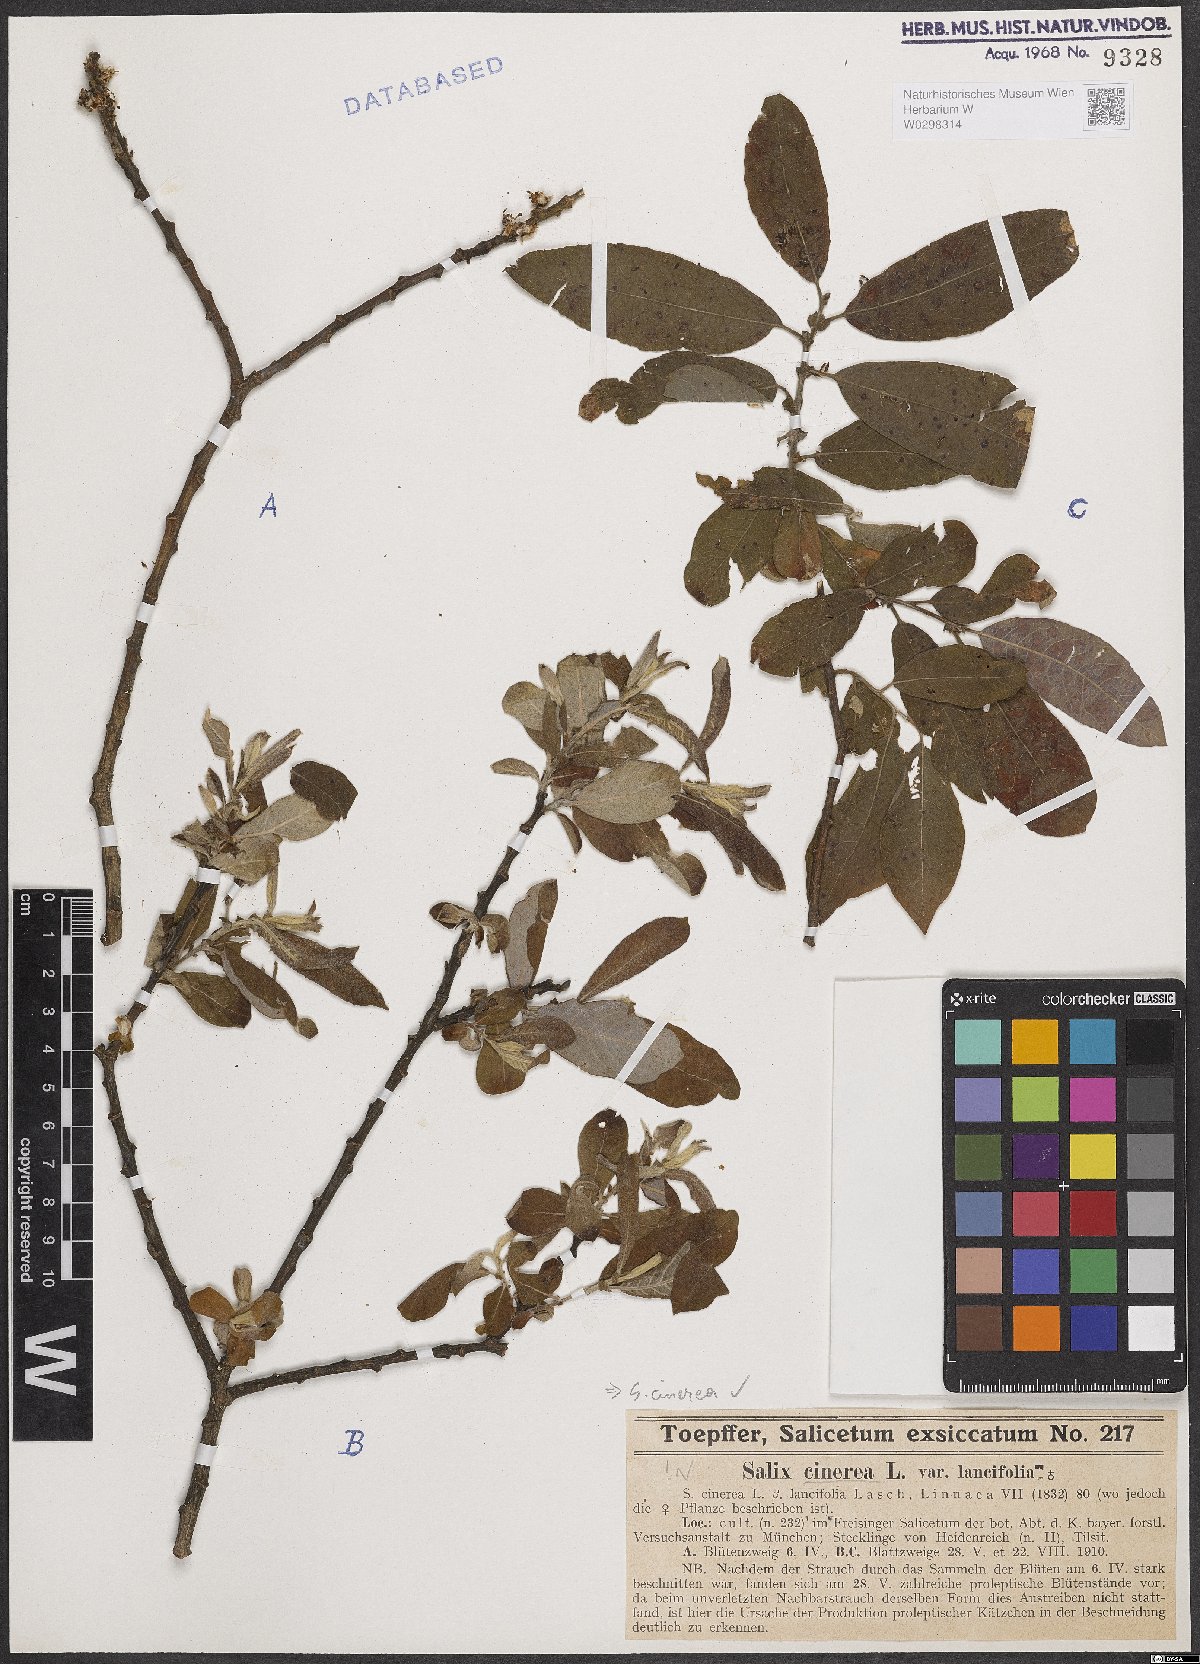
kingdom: Plantae
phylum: Tracheophyta
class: Magnoliopsida
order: Malpighiales
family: Salicaceae
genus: Salix
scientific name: Salix cinerea
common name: Common sallow
